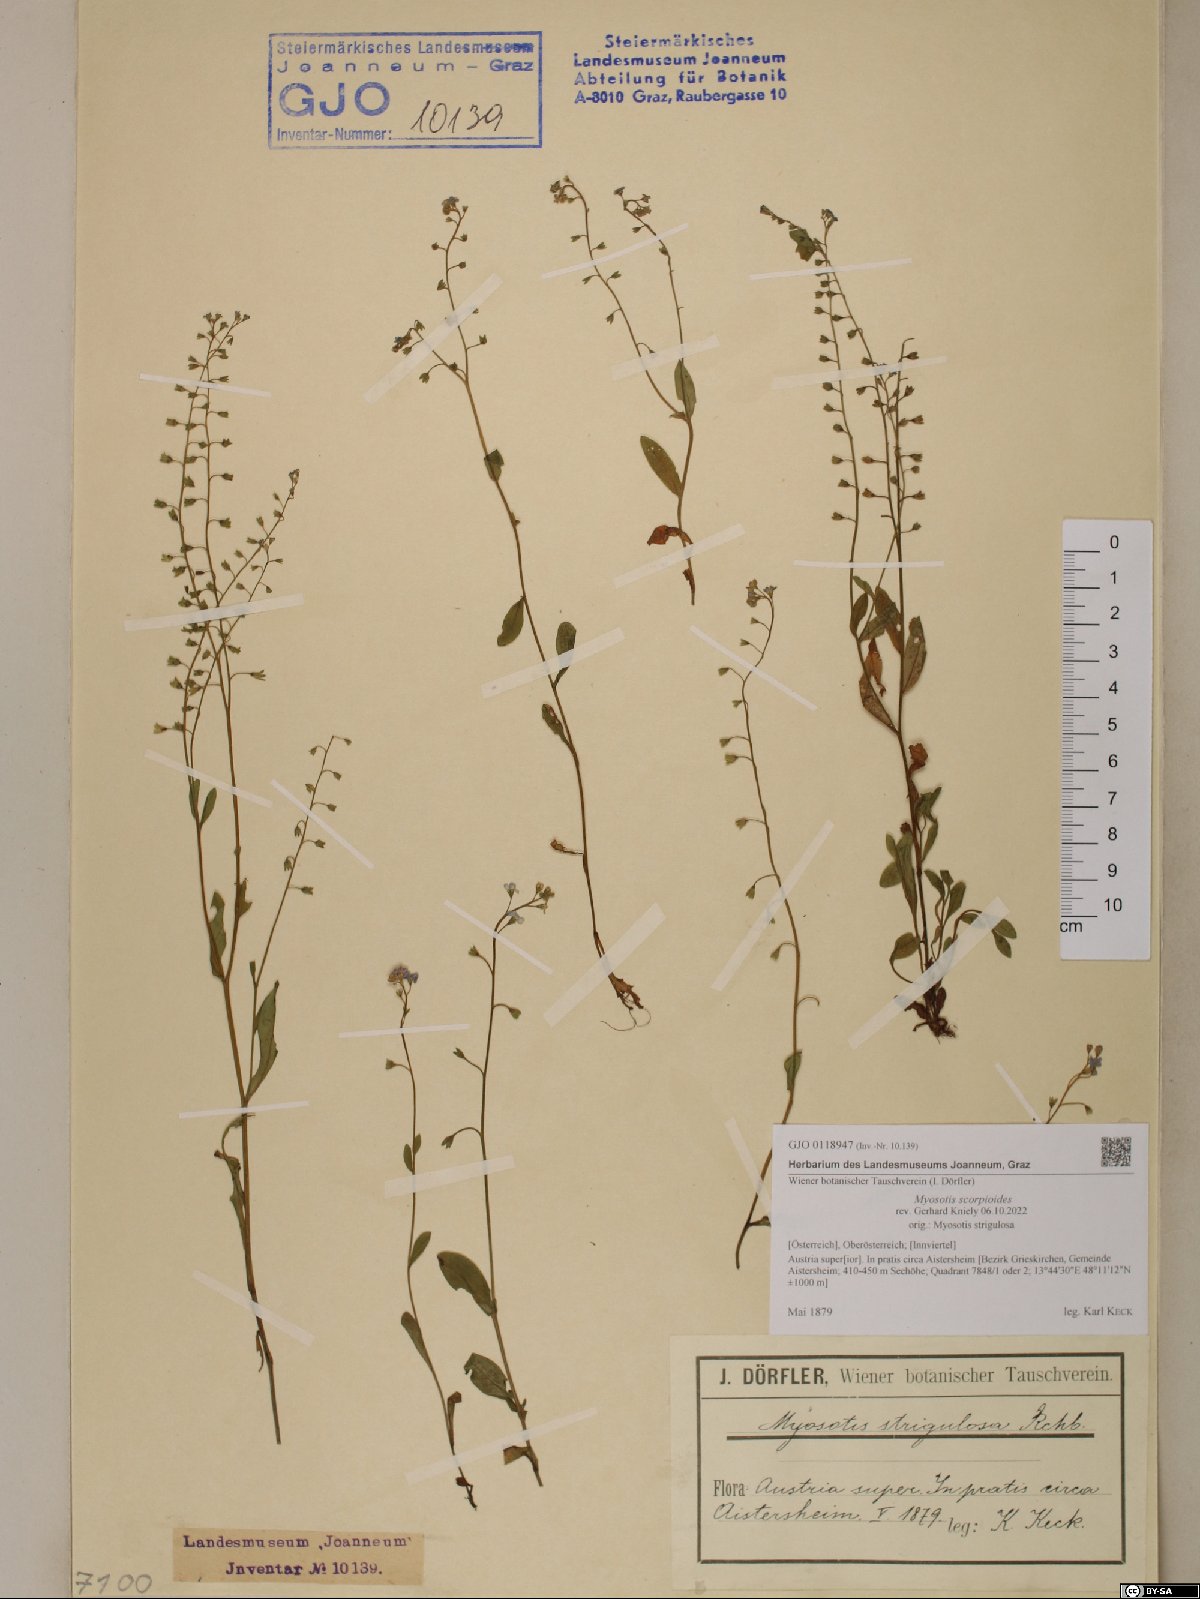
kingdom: Plantae
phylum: Tracheophyta
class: Magnoliopsida
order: Boraginales
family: Boraginaceae
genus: Myosotis
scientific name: Myosotis scorpioides
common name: Water forget-me-not
